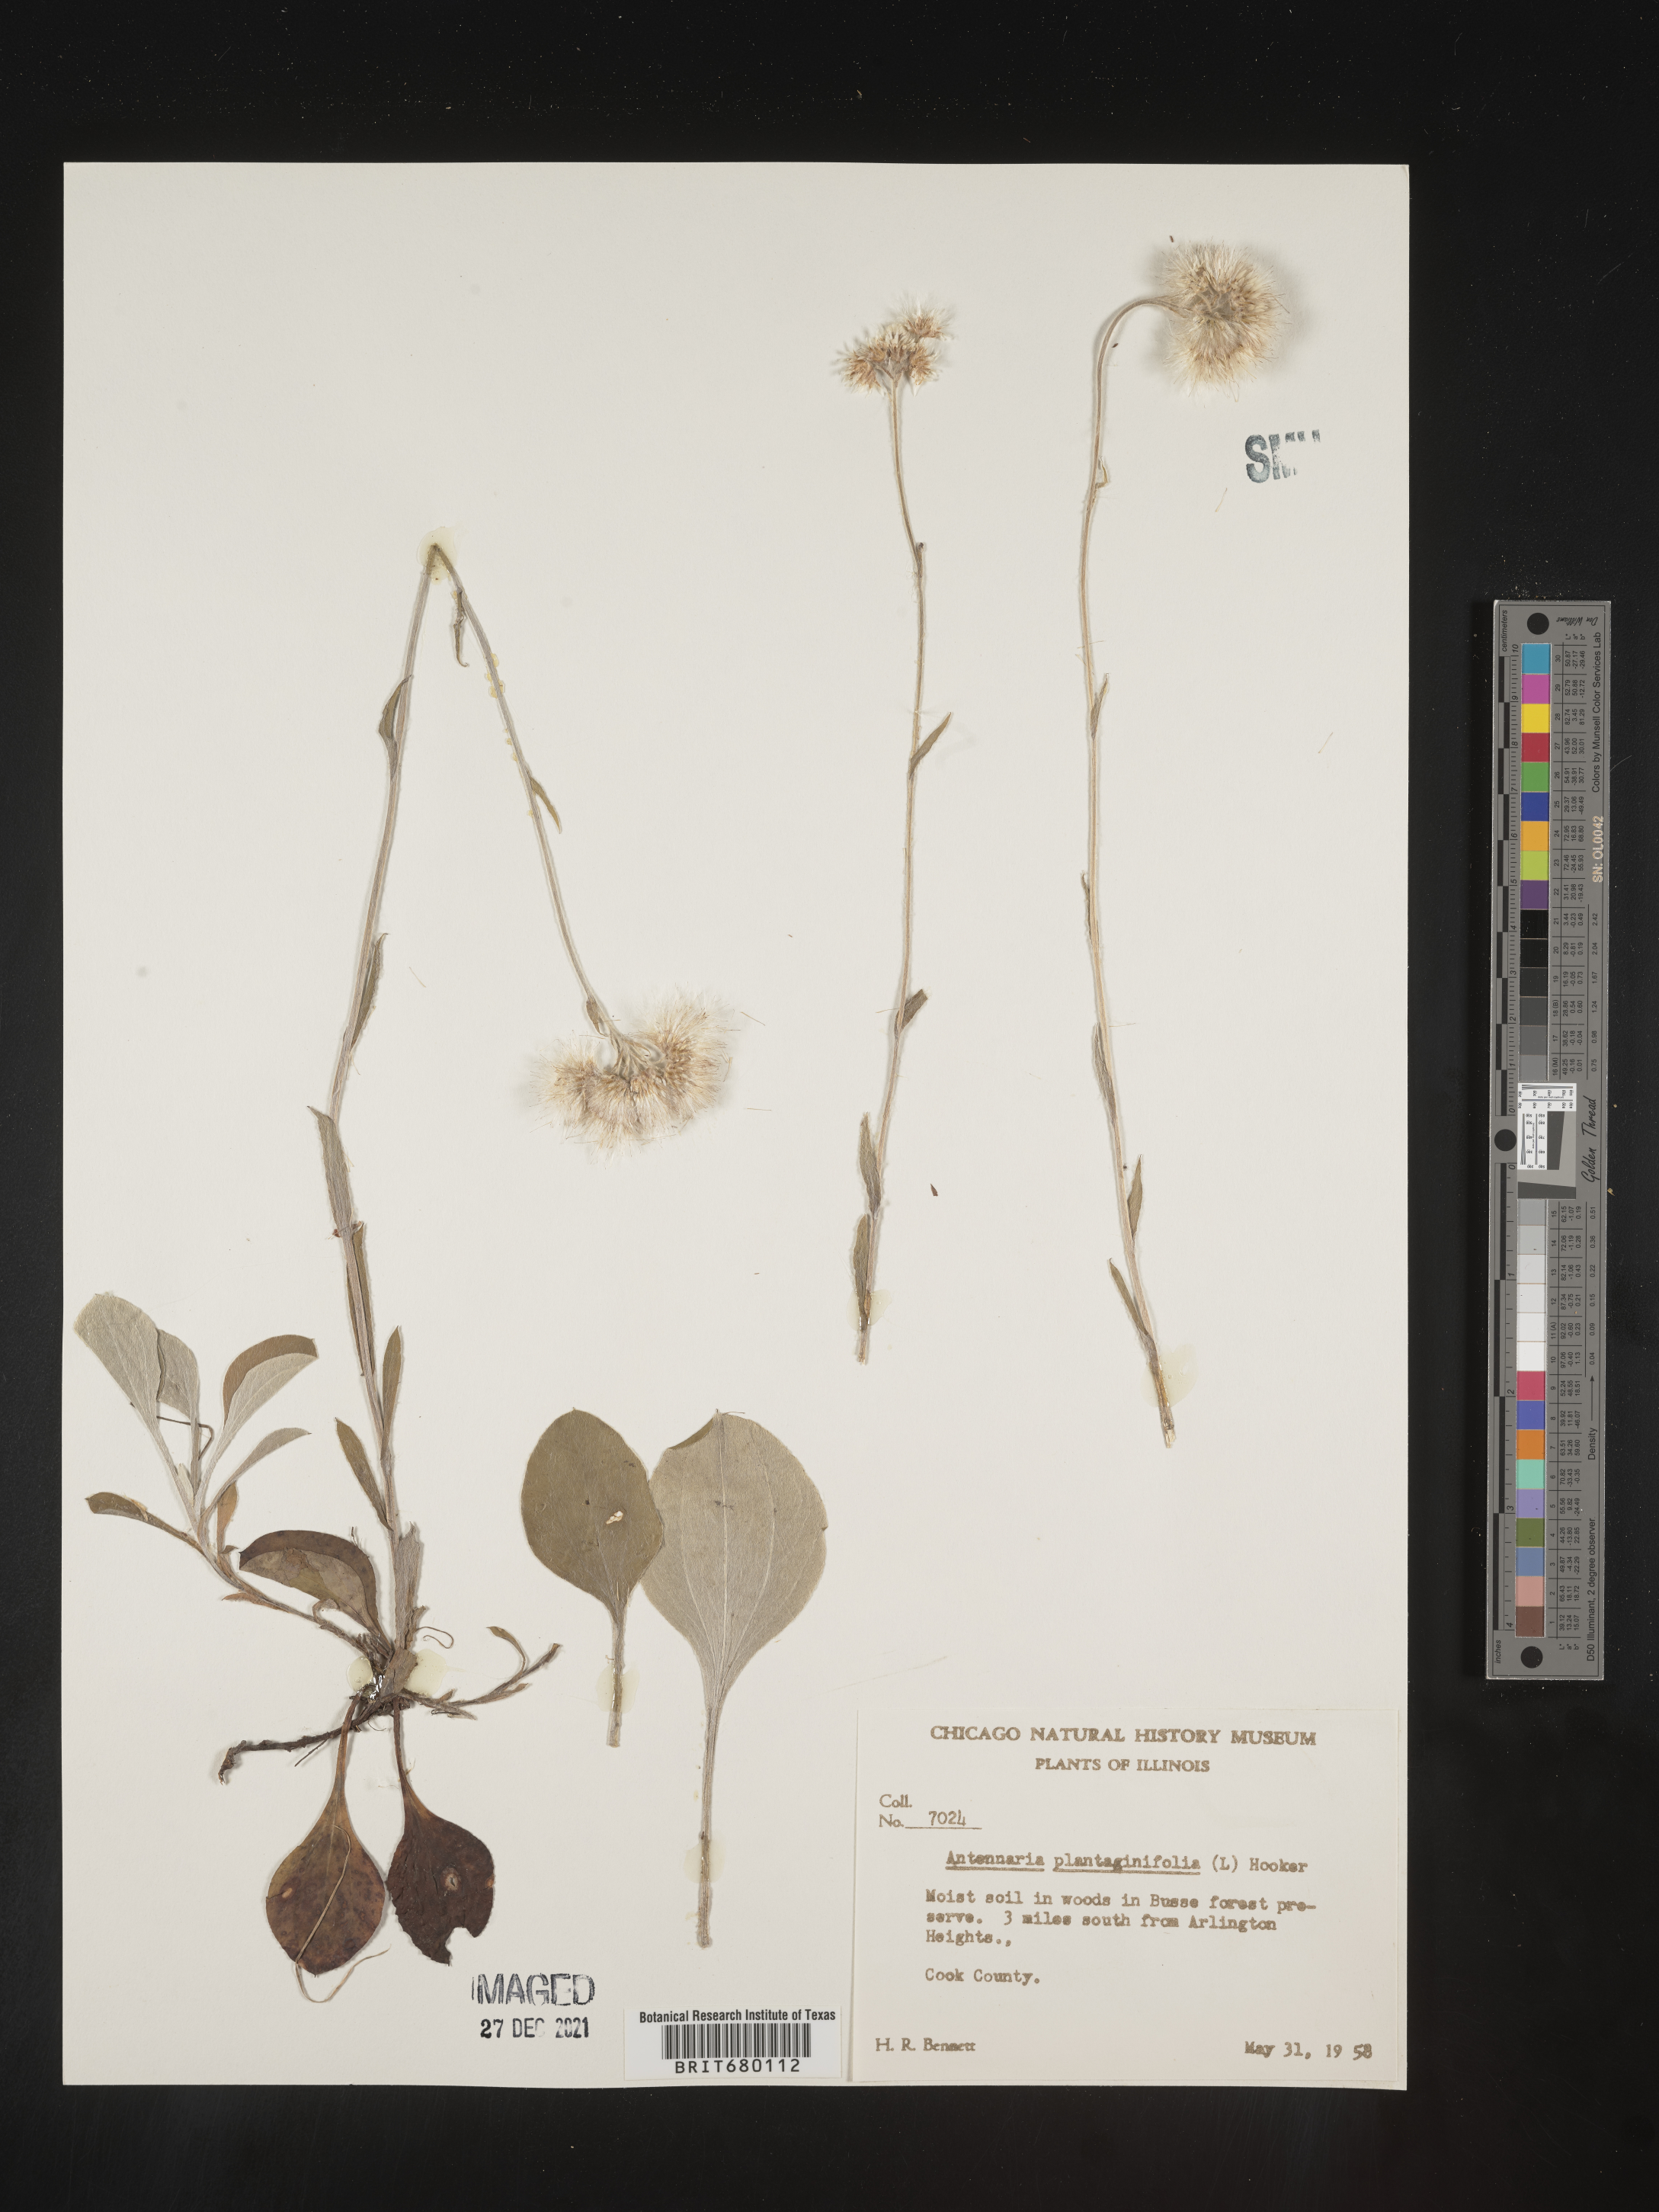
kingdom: Plantae
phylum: Tracheophyta
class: Magnoliopsida
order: Asterales
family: Asteraceae
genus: Antennaria
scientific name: Antennaria plantaginifolia
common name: Plantain-leaved pussytoes
